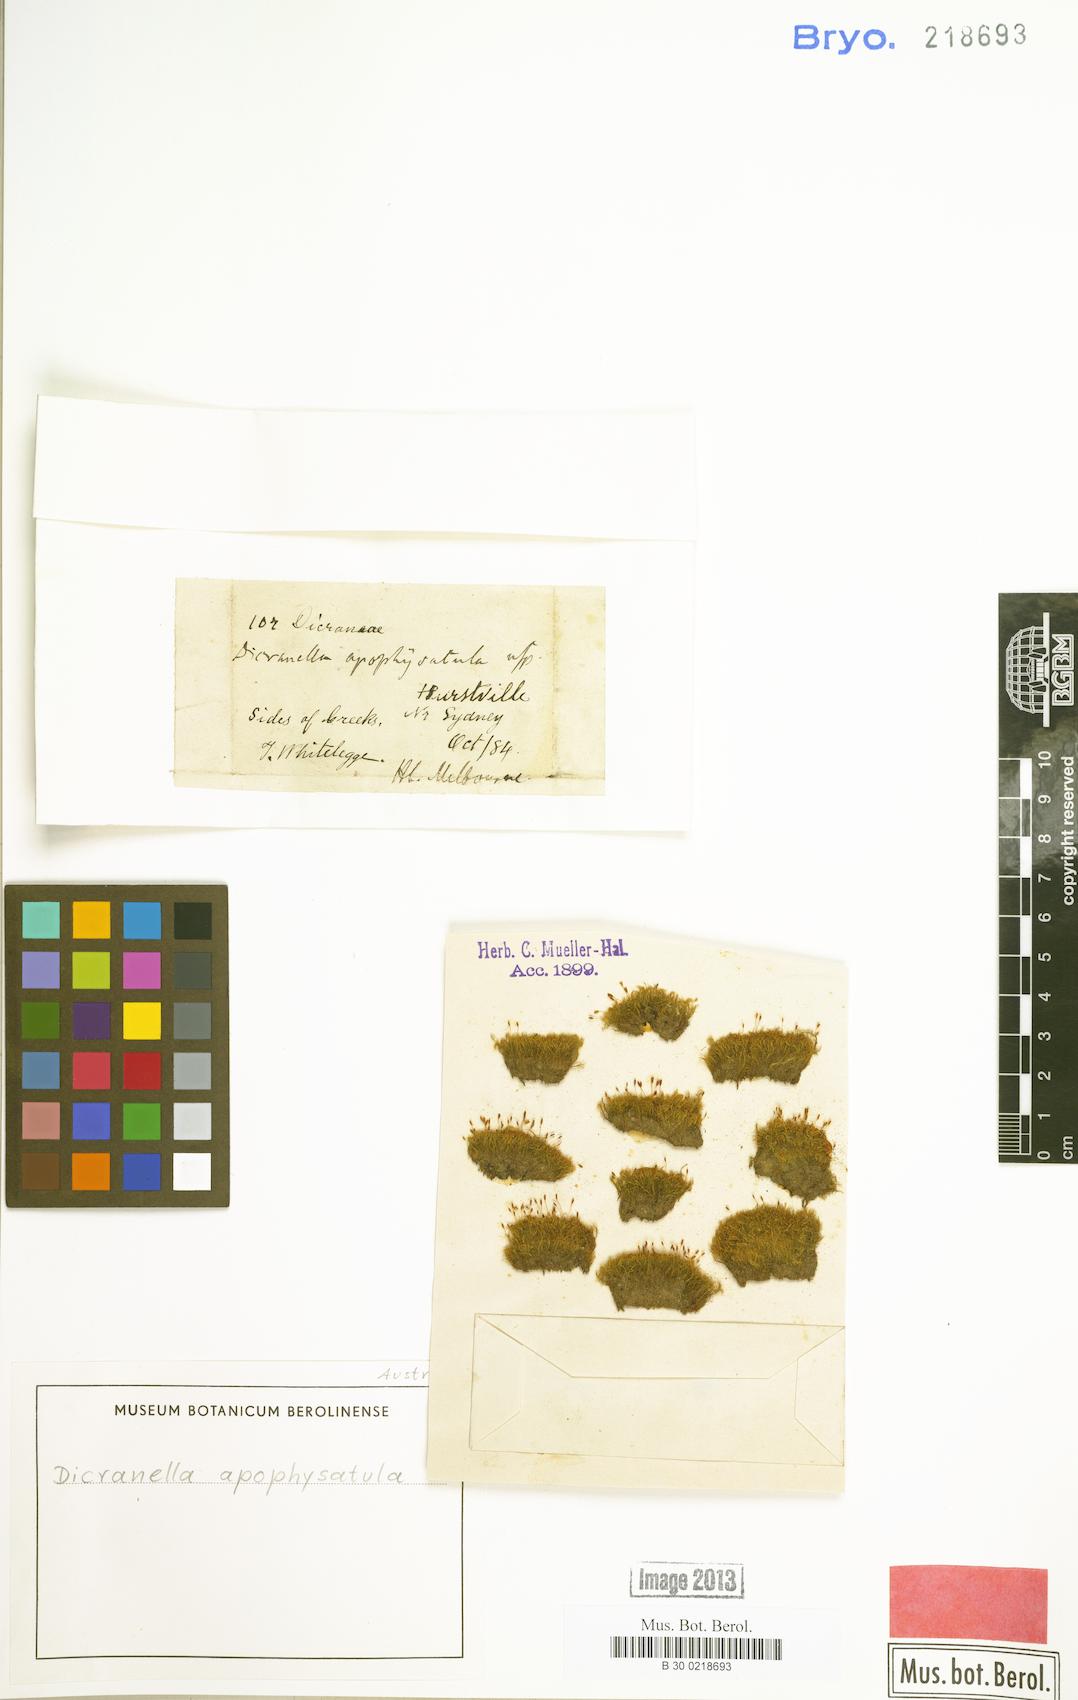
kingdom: Plantae
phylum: Bryophyta
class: Bryopsida
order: Dicranales
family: Dicranellaceae
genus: Dicranella
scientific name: Dicranella apophysatula
